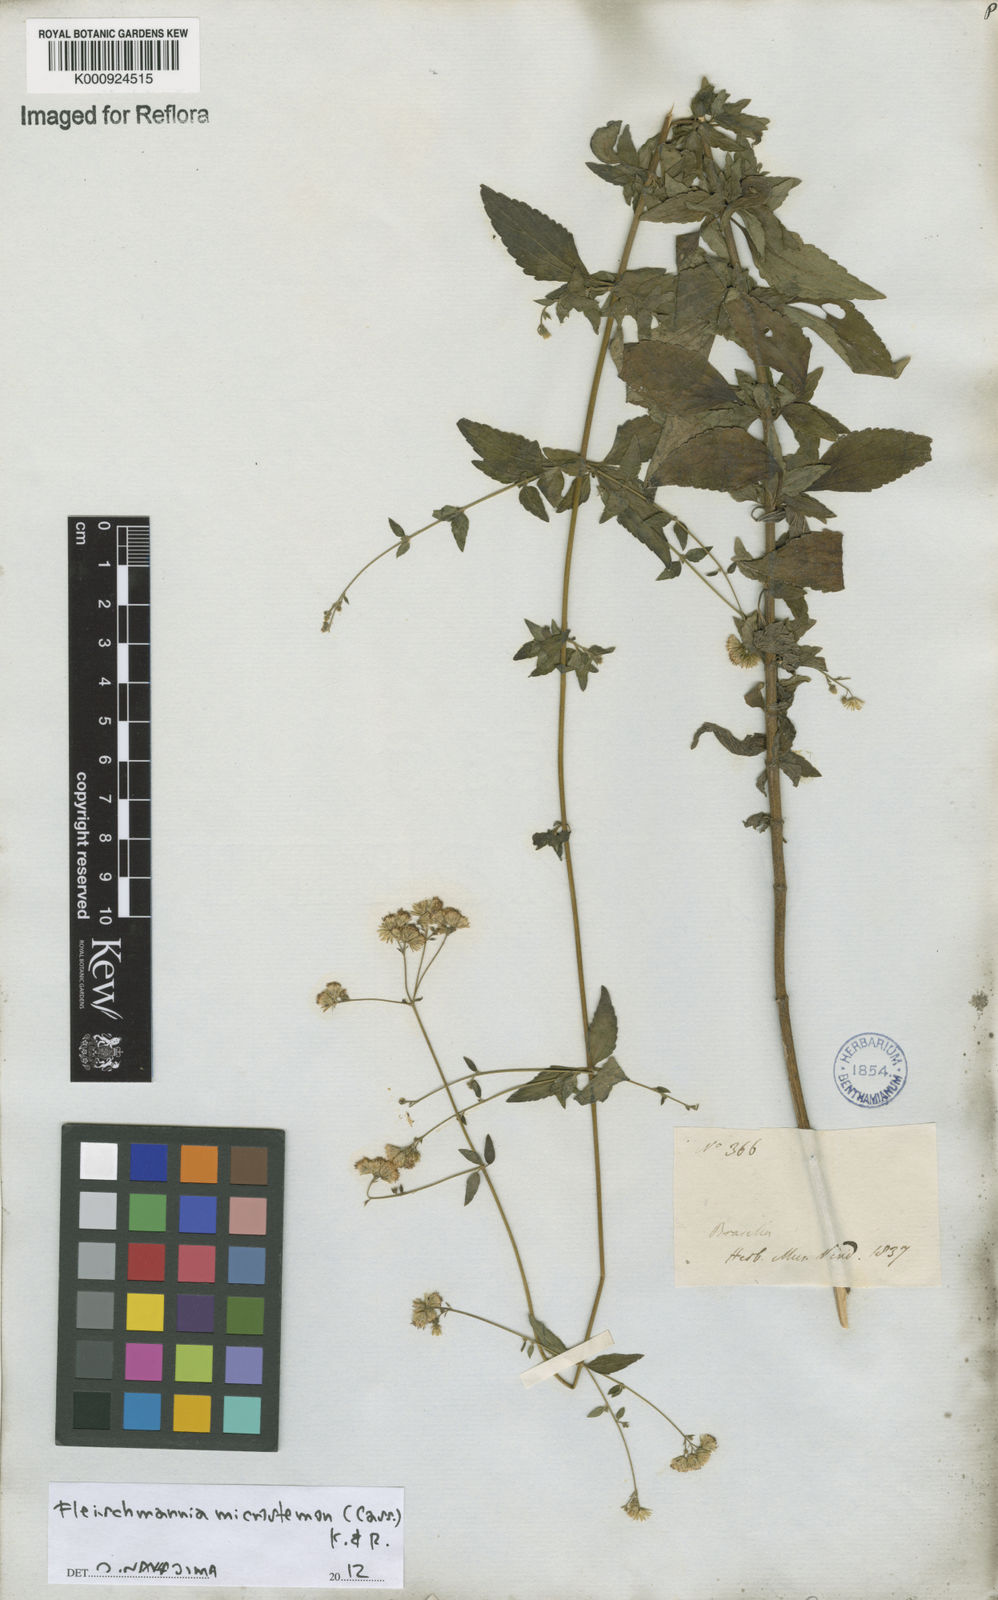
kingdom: Plantae
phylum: Tracheophyta
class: Magnoliopsida
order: Asterales
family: Asteraceae
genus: Fleischmannia
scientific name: Fleischmannia microstemon
